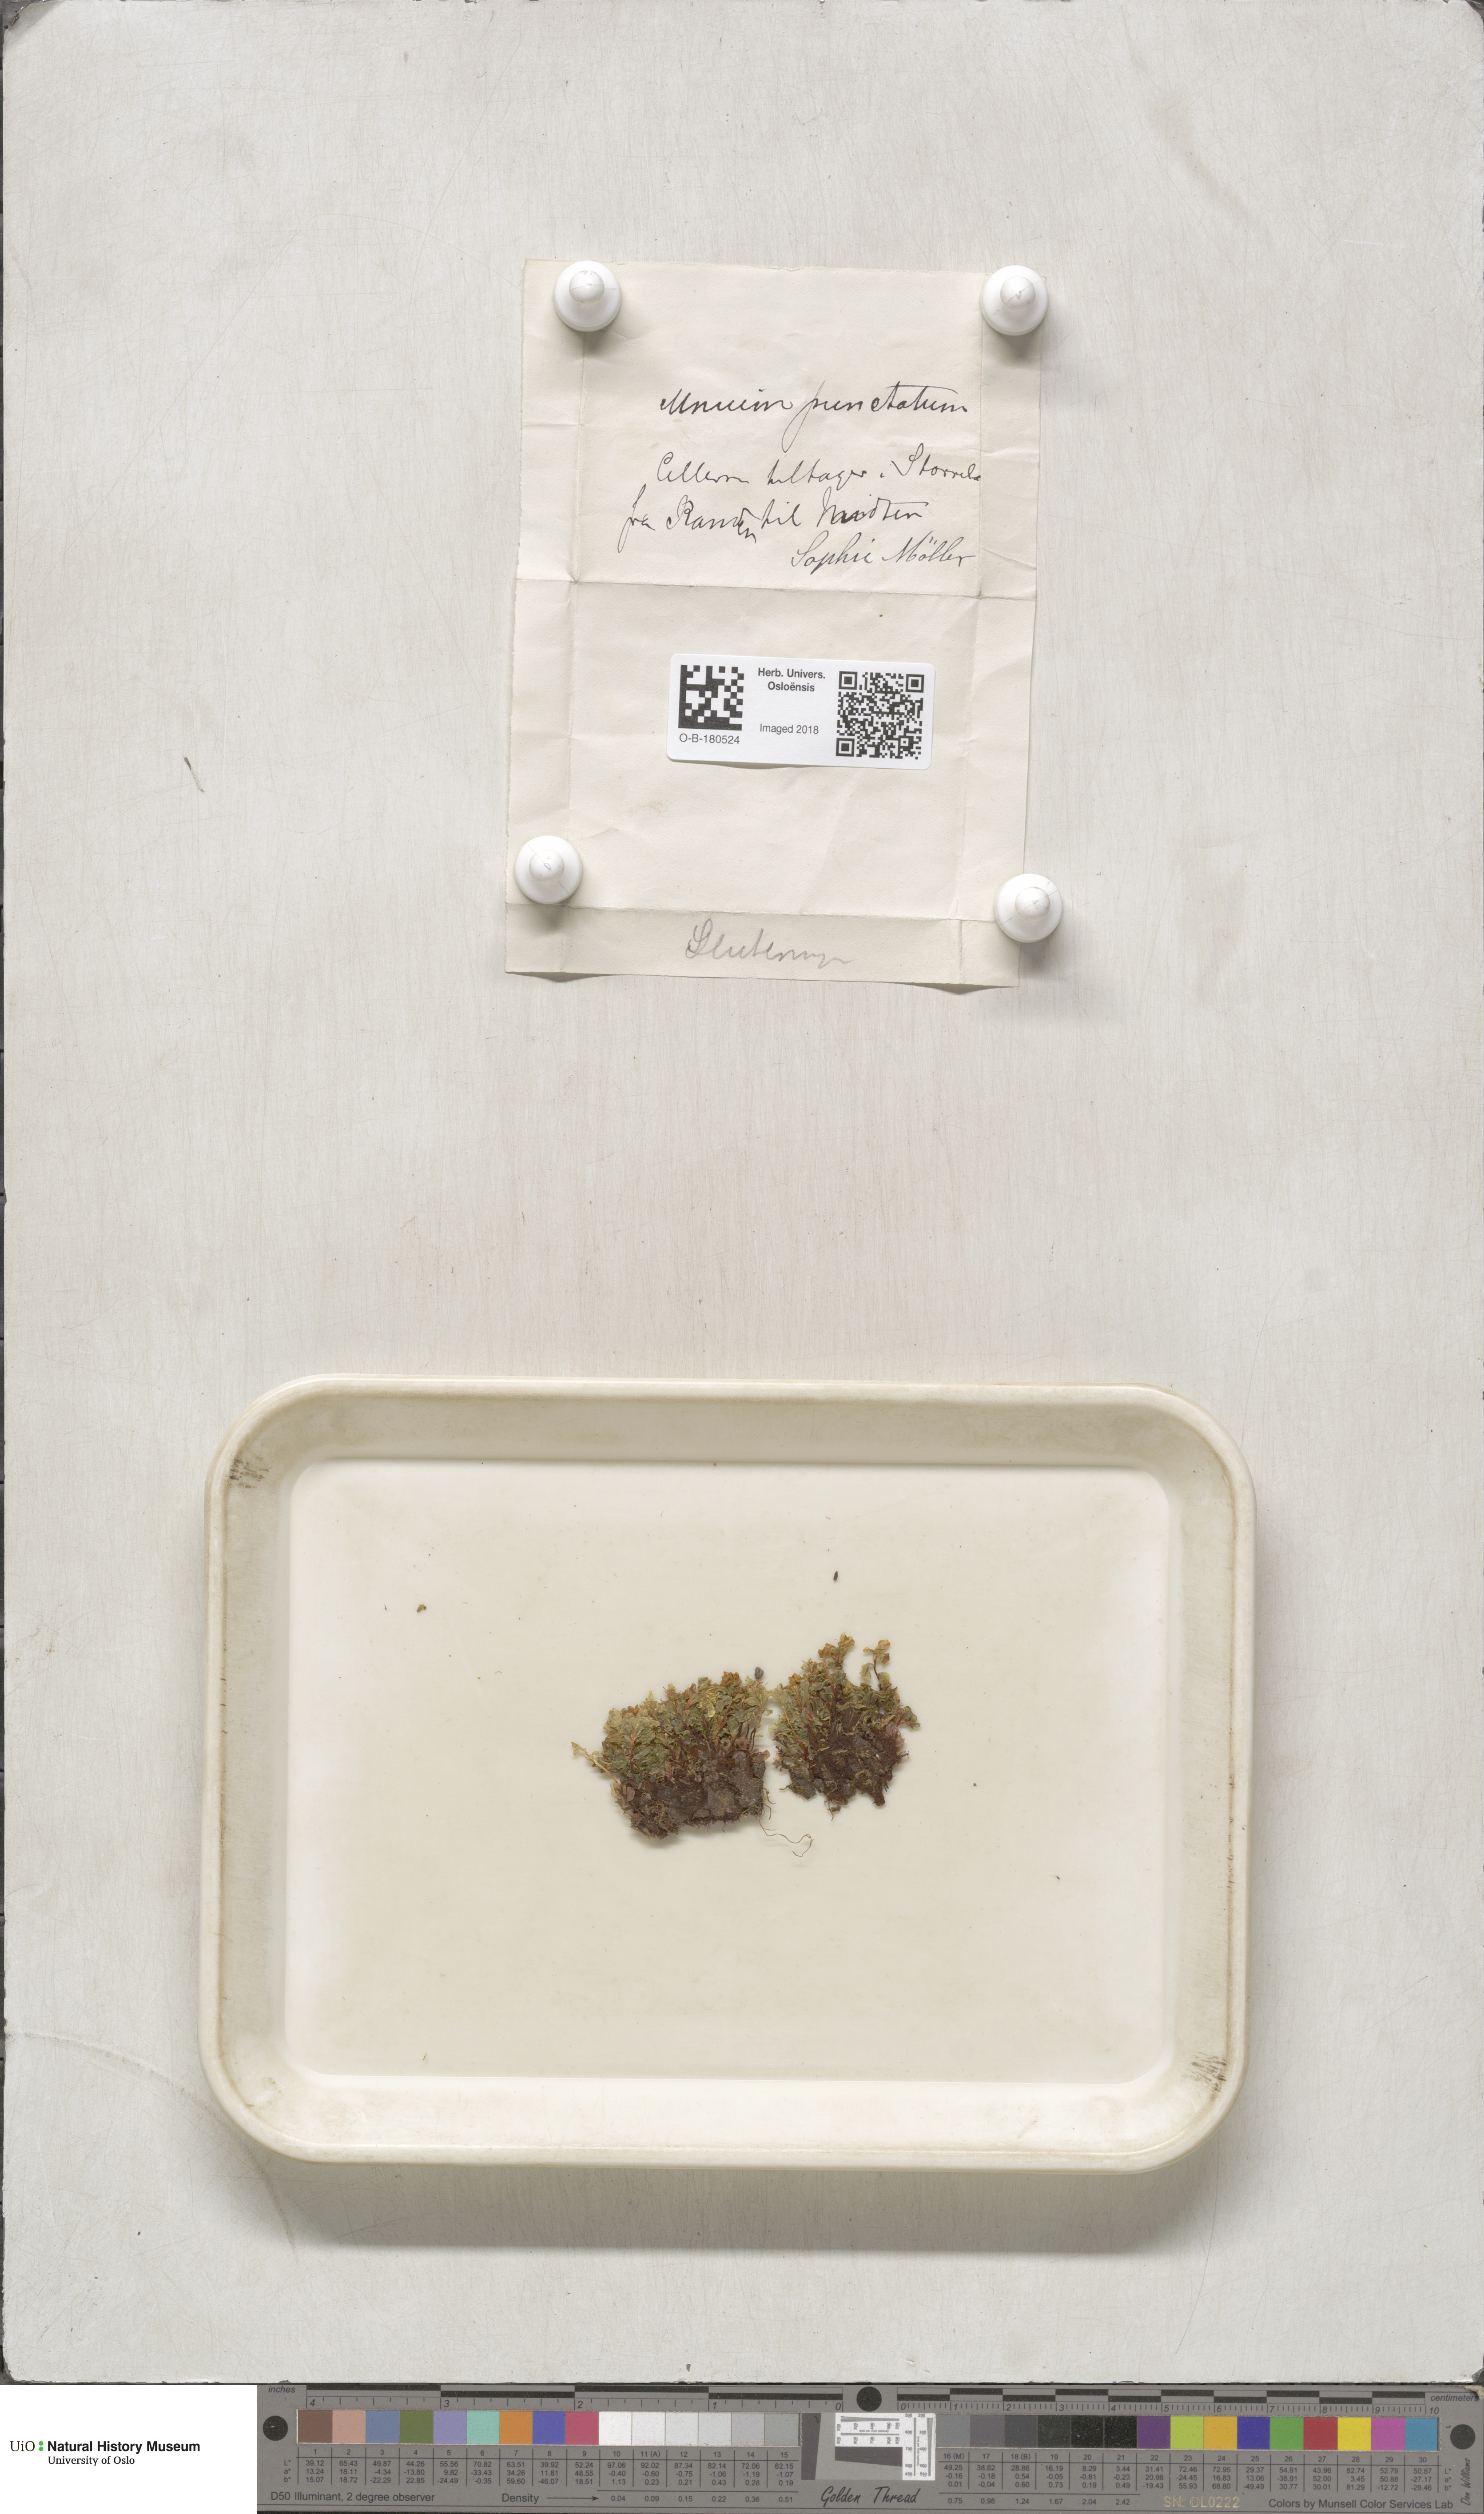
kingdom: Plantae
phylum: Bryophyta
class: Bryopsida
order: Bryales
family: Mniaceae
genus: Rhizomnium
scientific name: Rhizomnium punctatum
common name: Dotted leafy moss
